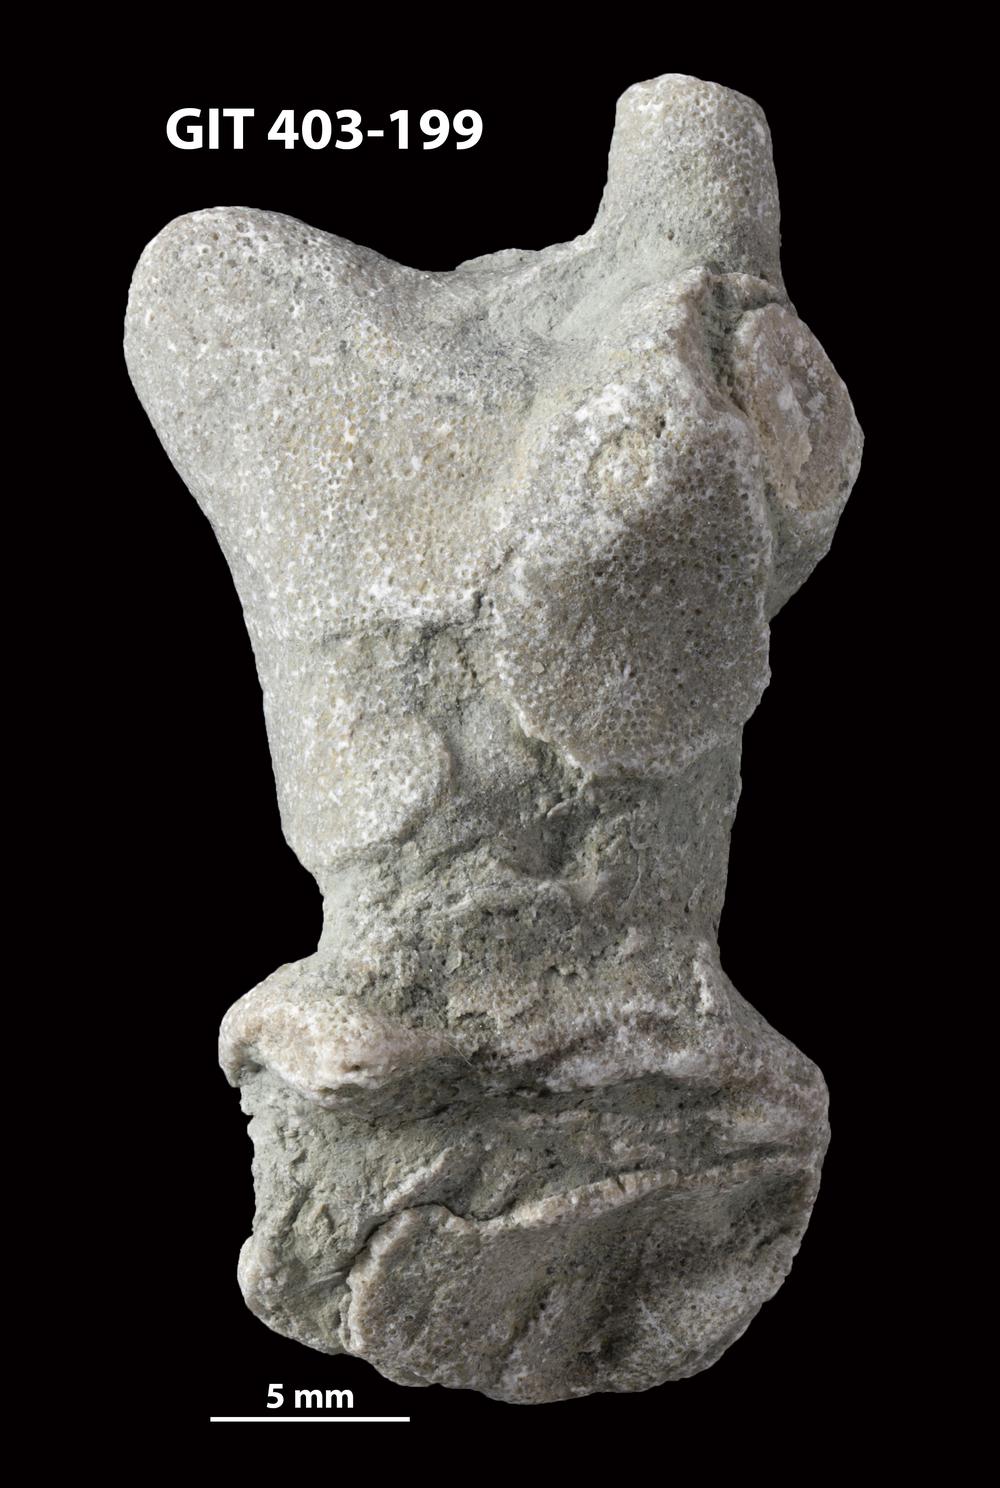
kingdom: Animalia
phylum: Bryozoa
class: Stenolaemata
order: Cystoporida
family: Fistuliporidae
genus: Fistulipora
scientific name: Fistulipora przhidolensis
